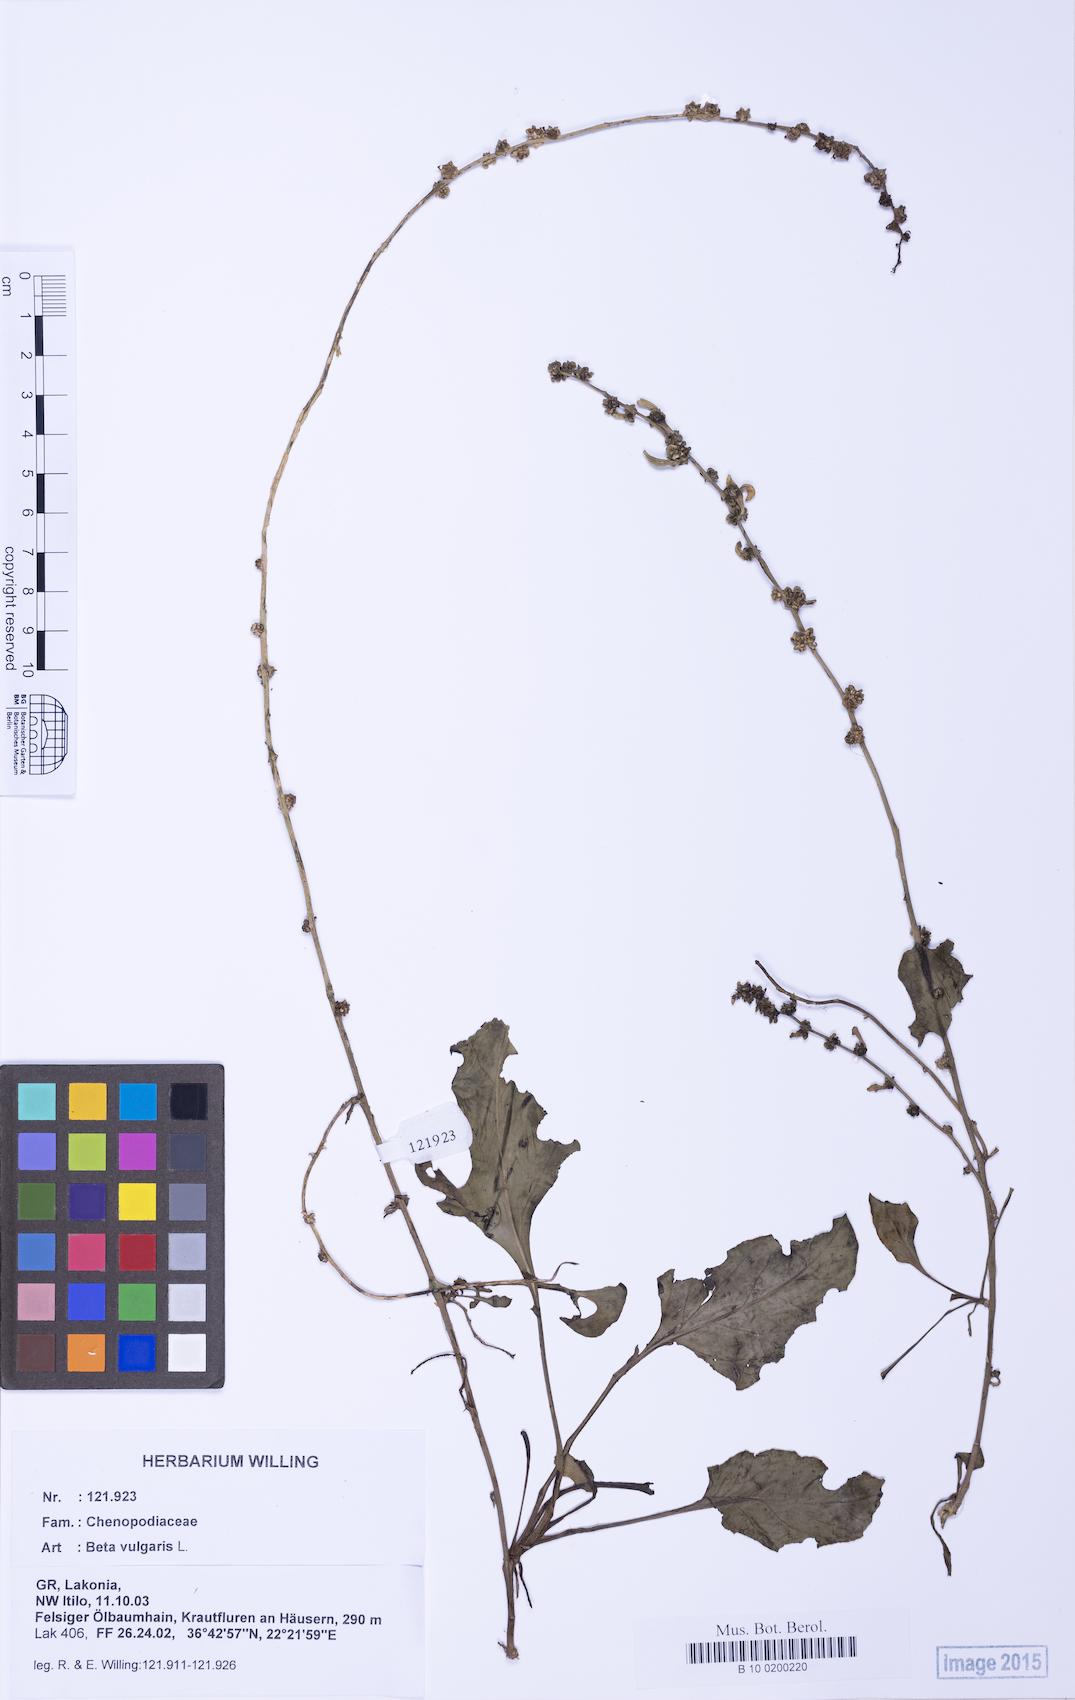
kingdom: Plantae
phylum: Tracheophyta
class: Magnoliopsida
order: Caryophyllales
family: Amaranthaceae
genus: Beta
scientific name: Beta maritima
